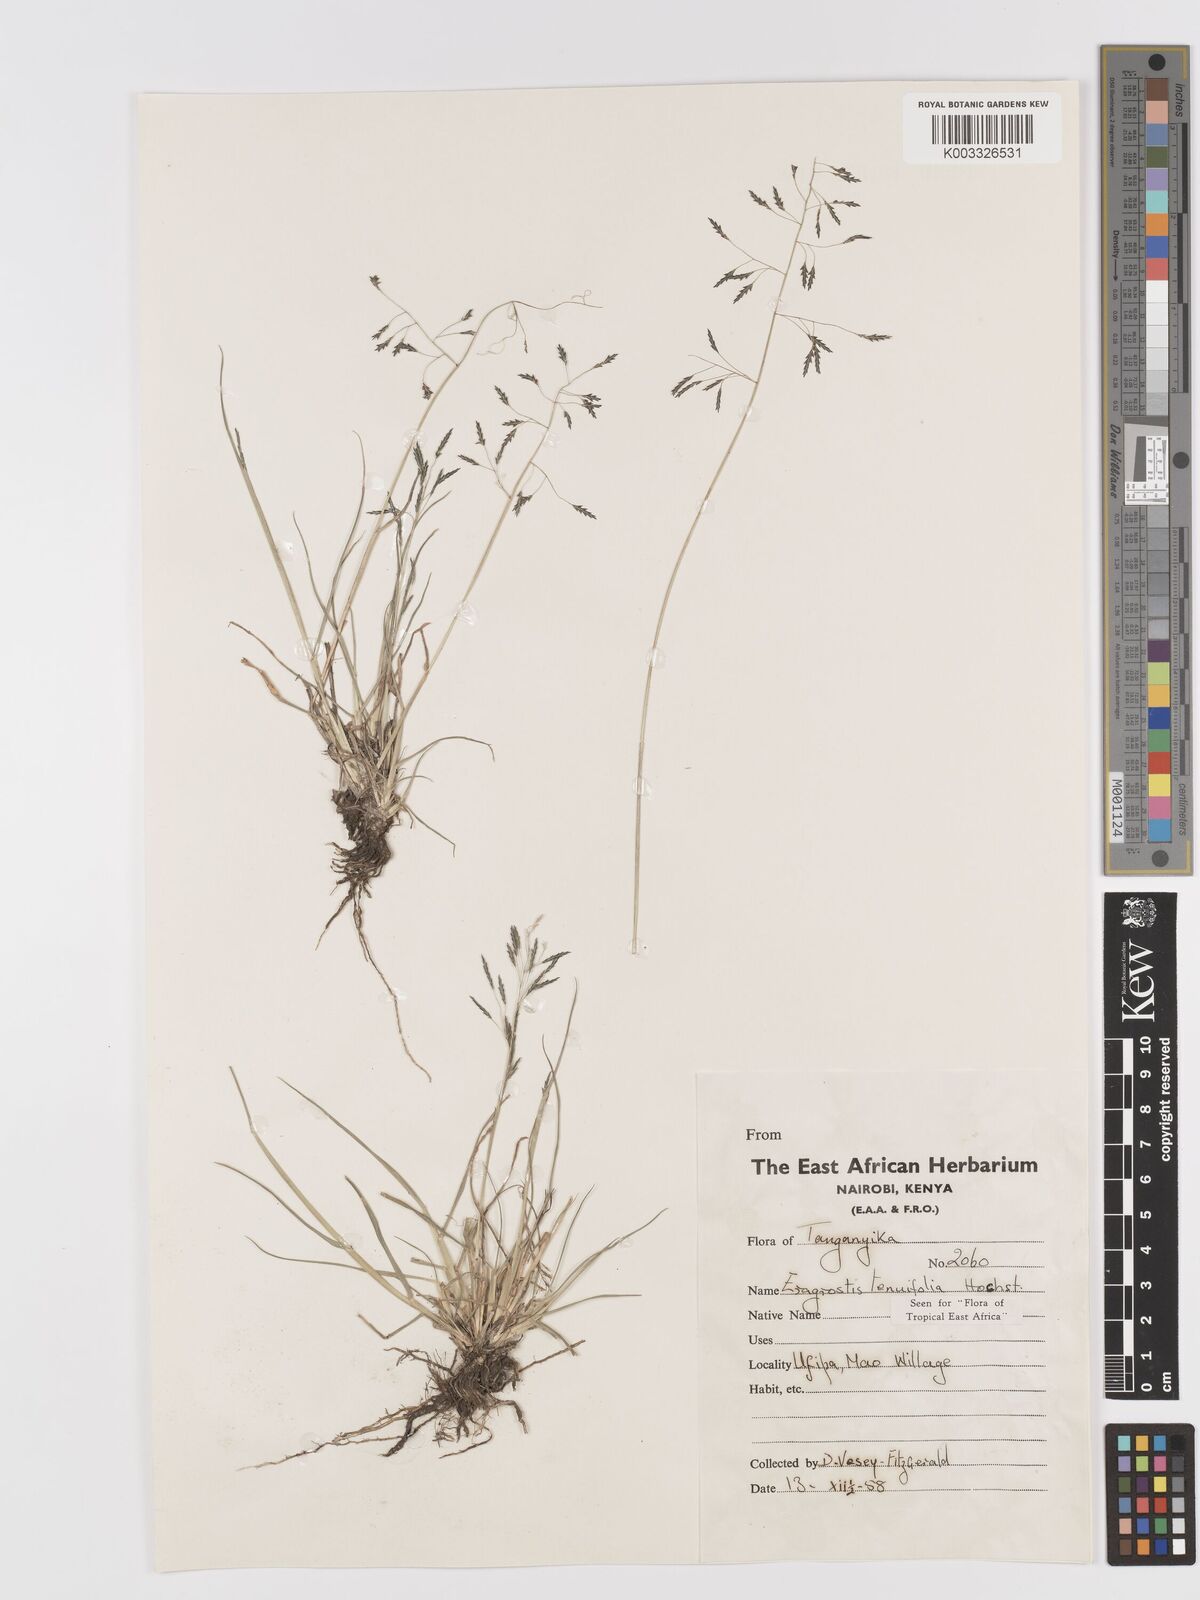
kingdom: Plantae
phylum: Tracheophyta
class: Liliopsida
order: Poales
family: Poaceae
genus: Eragrostis
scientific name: Eragrostis tenuifolia
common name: Elastic grass
